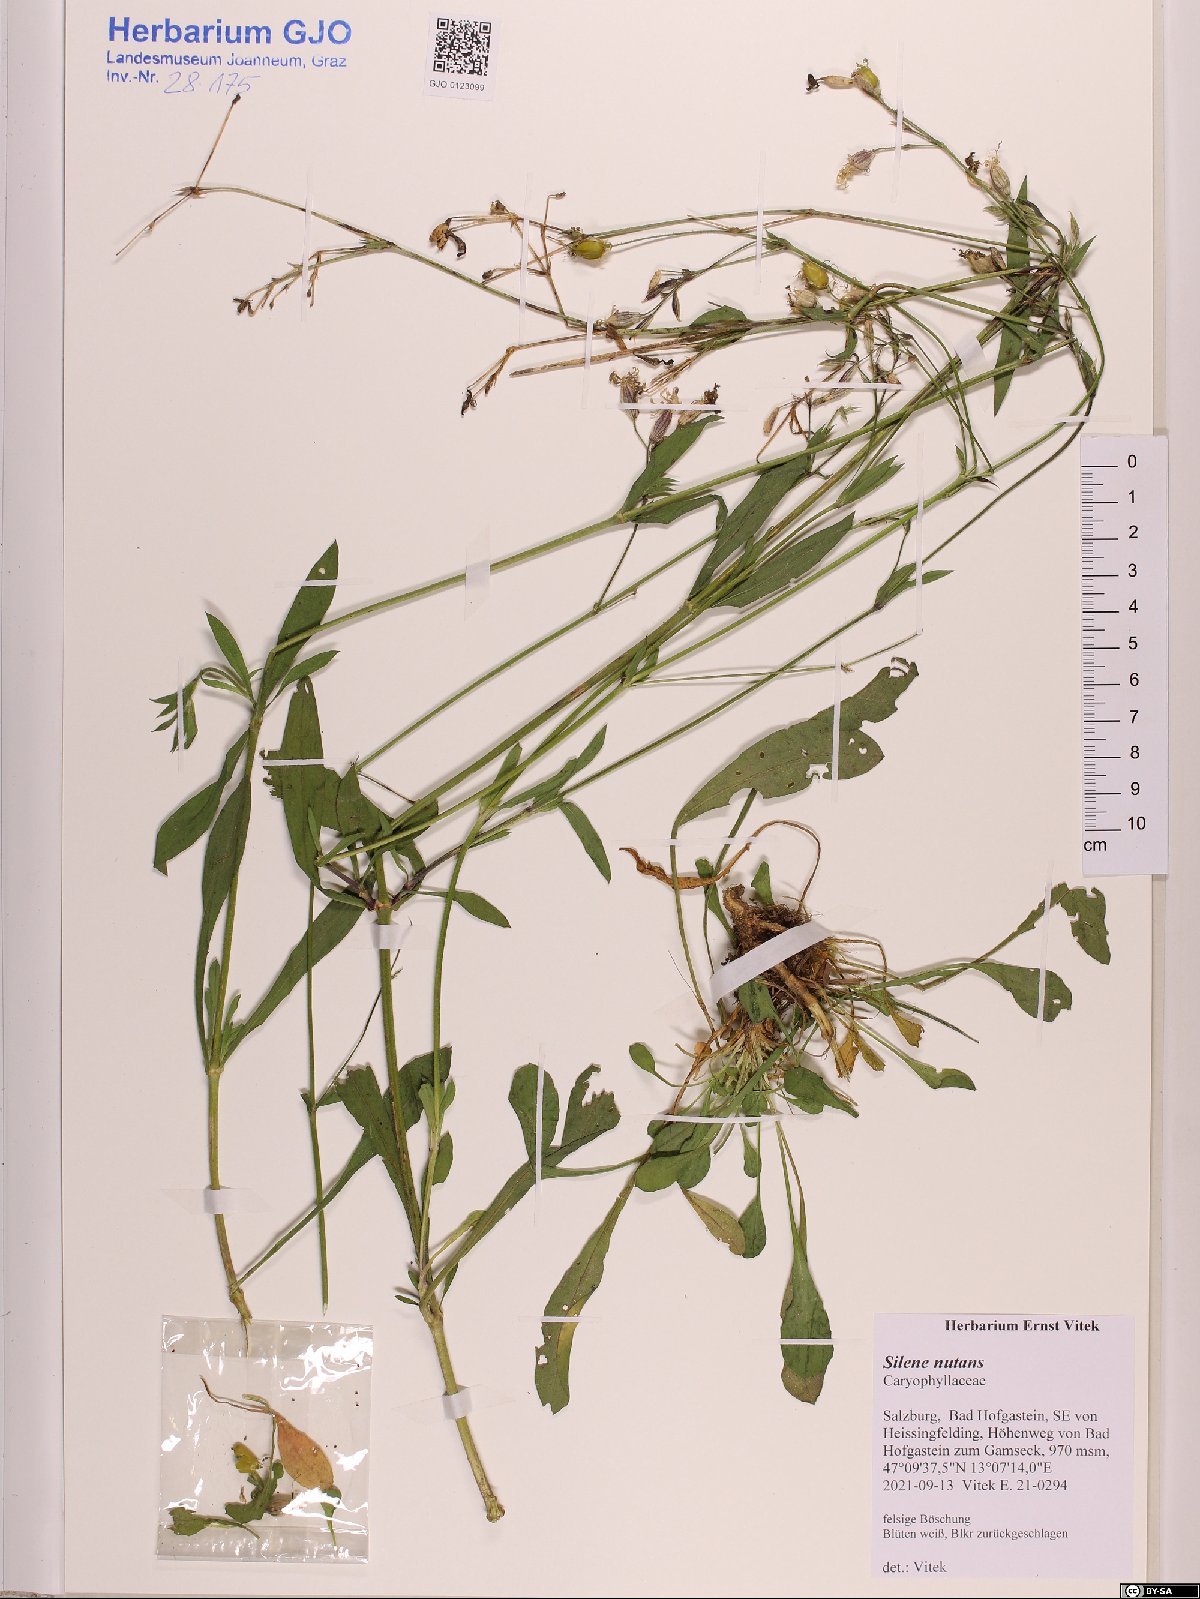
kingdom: Plantae
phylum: Tracheophyta
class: Magnoliopsida
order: Caryophyllales
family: Caryophyllaceae
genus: Silene
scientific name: Silene nutans
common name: Nottingham catchfly
